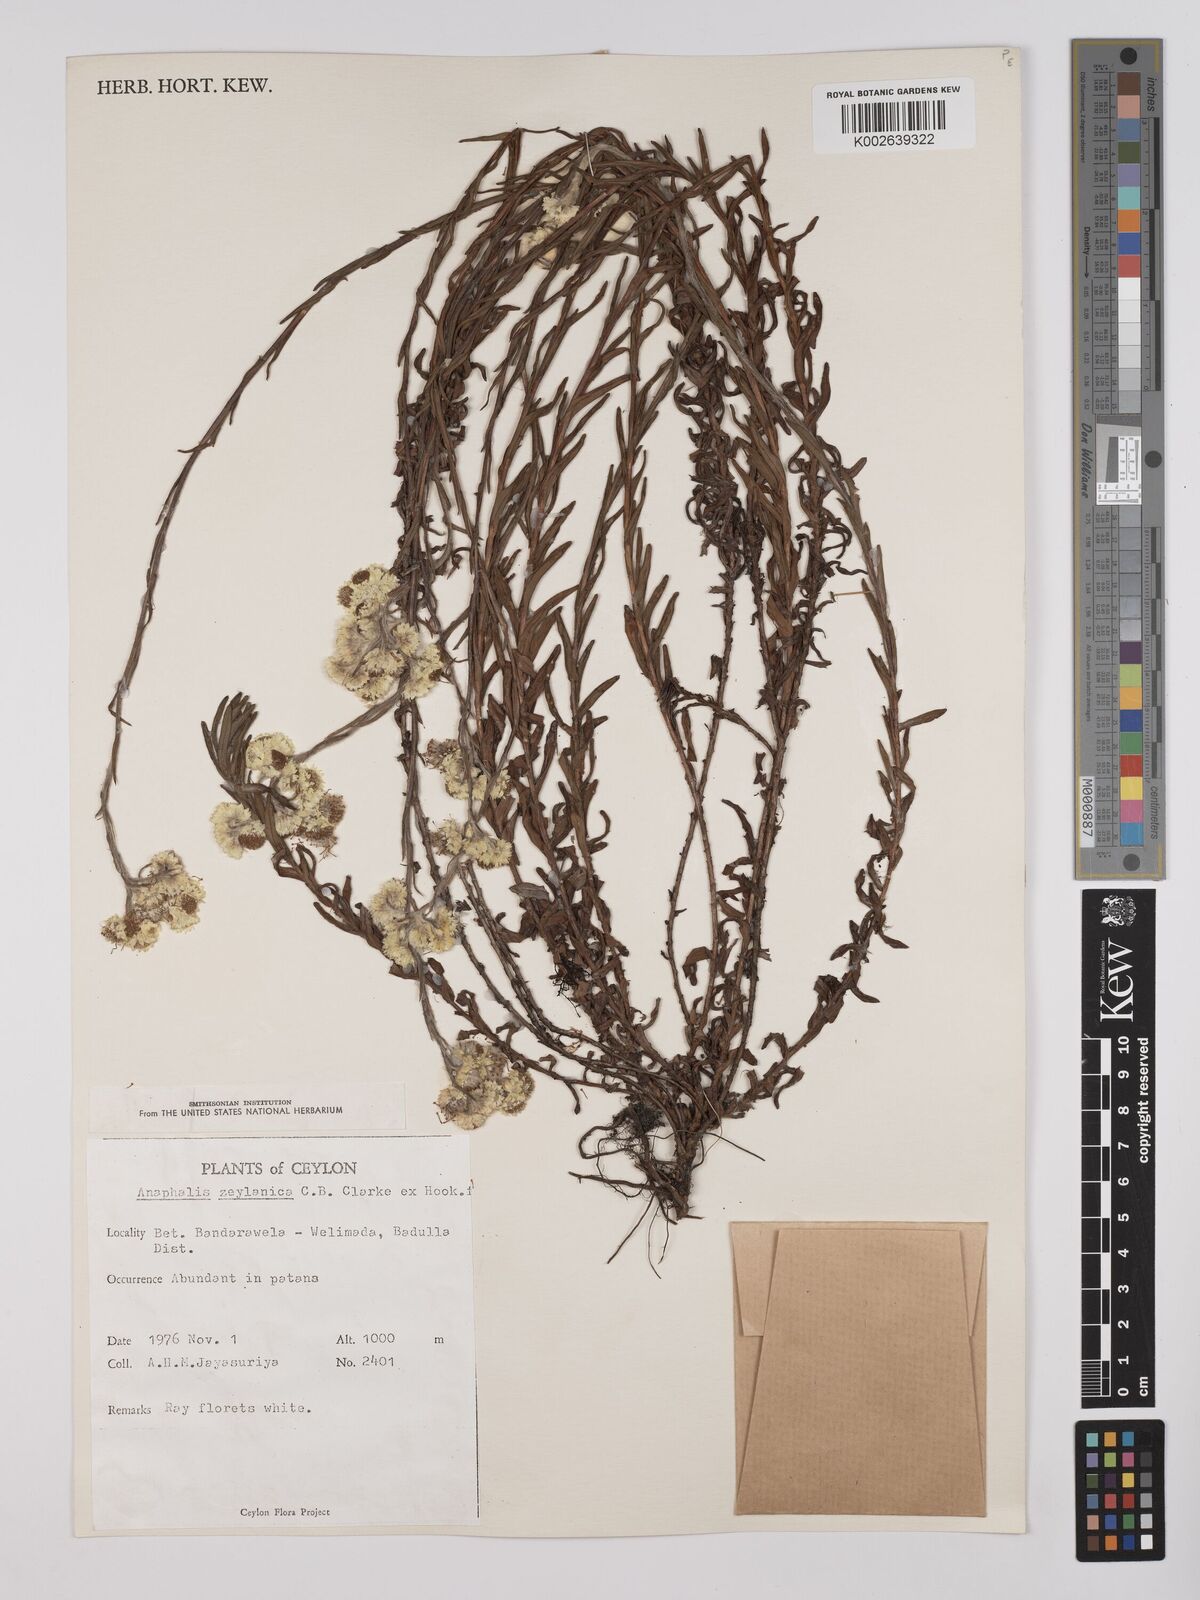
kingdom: Plantae
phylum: Tracheophyta
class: Magnoliopsida
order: Asterales
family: Asteraceae
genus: Anaphalis
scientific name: Anaphalis zeylanica
